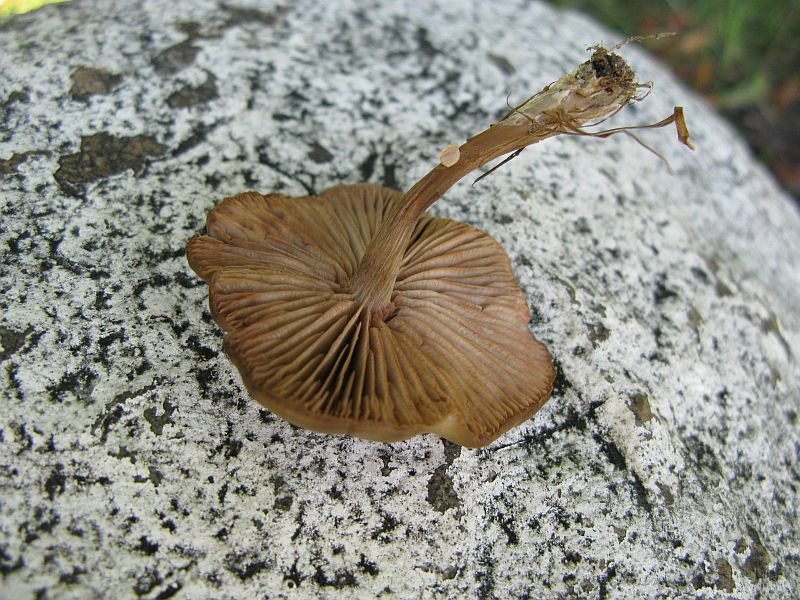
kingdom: Fungi
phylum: Basidiomycota
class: Agaricomycetes
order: Agaricales
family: Entolomataceae
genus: Entoloma
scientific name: Entoloma sericeum
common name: silkeglinsende rødblad
